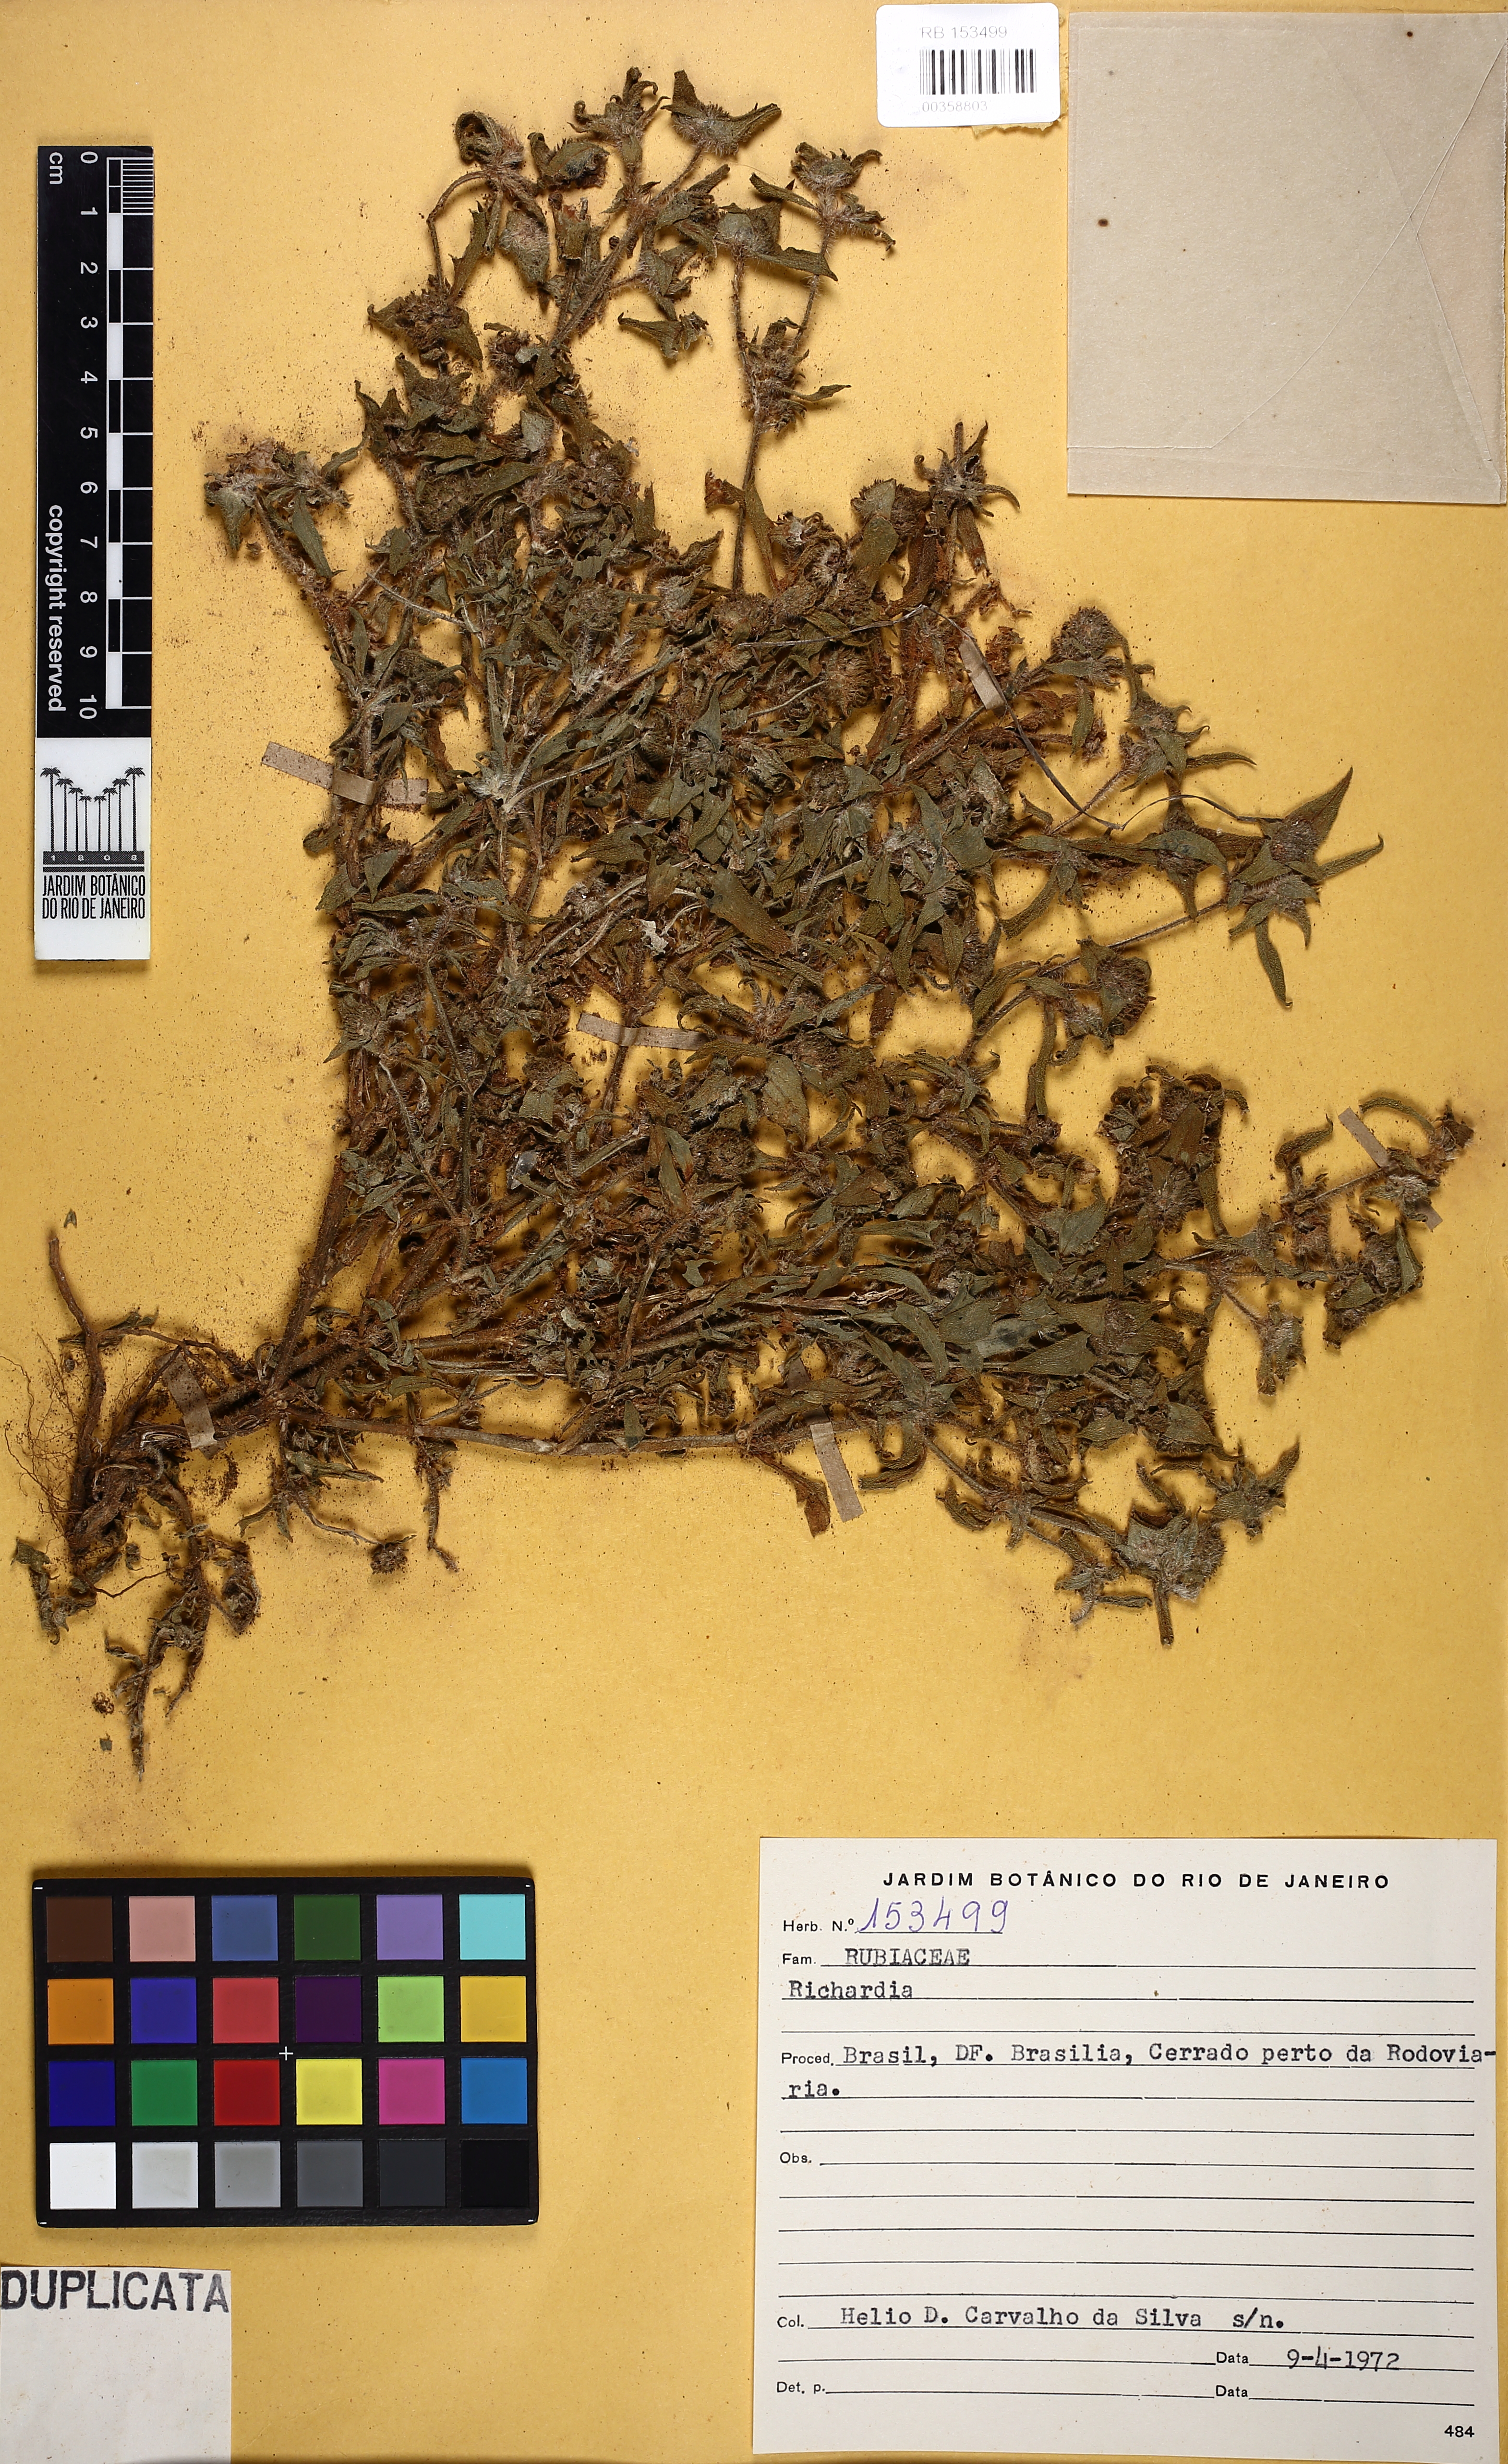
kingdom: Plantae
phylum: Tracheophyta
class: Magnoliopsida
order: Gentianales
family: Rubiaceae
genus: Richardia
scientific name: Richardia
